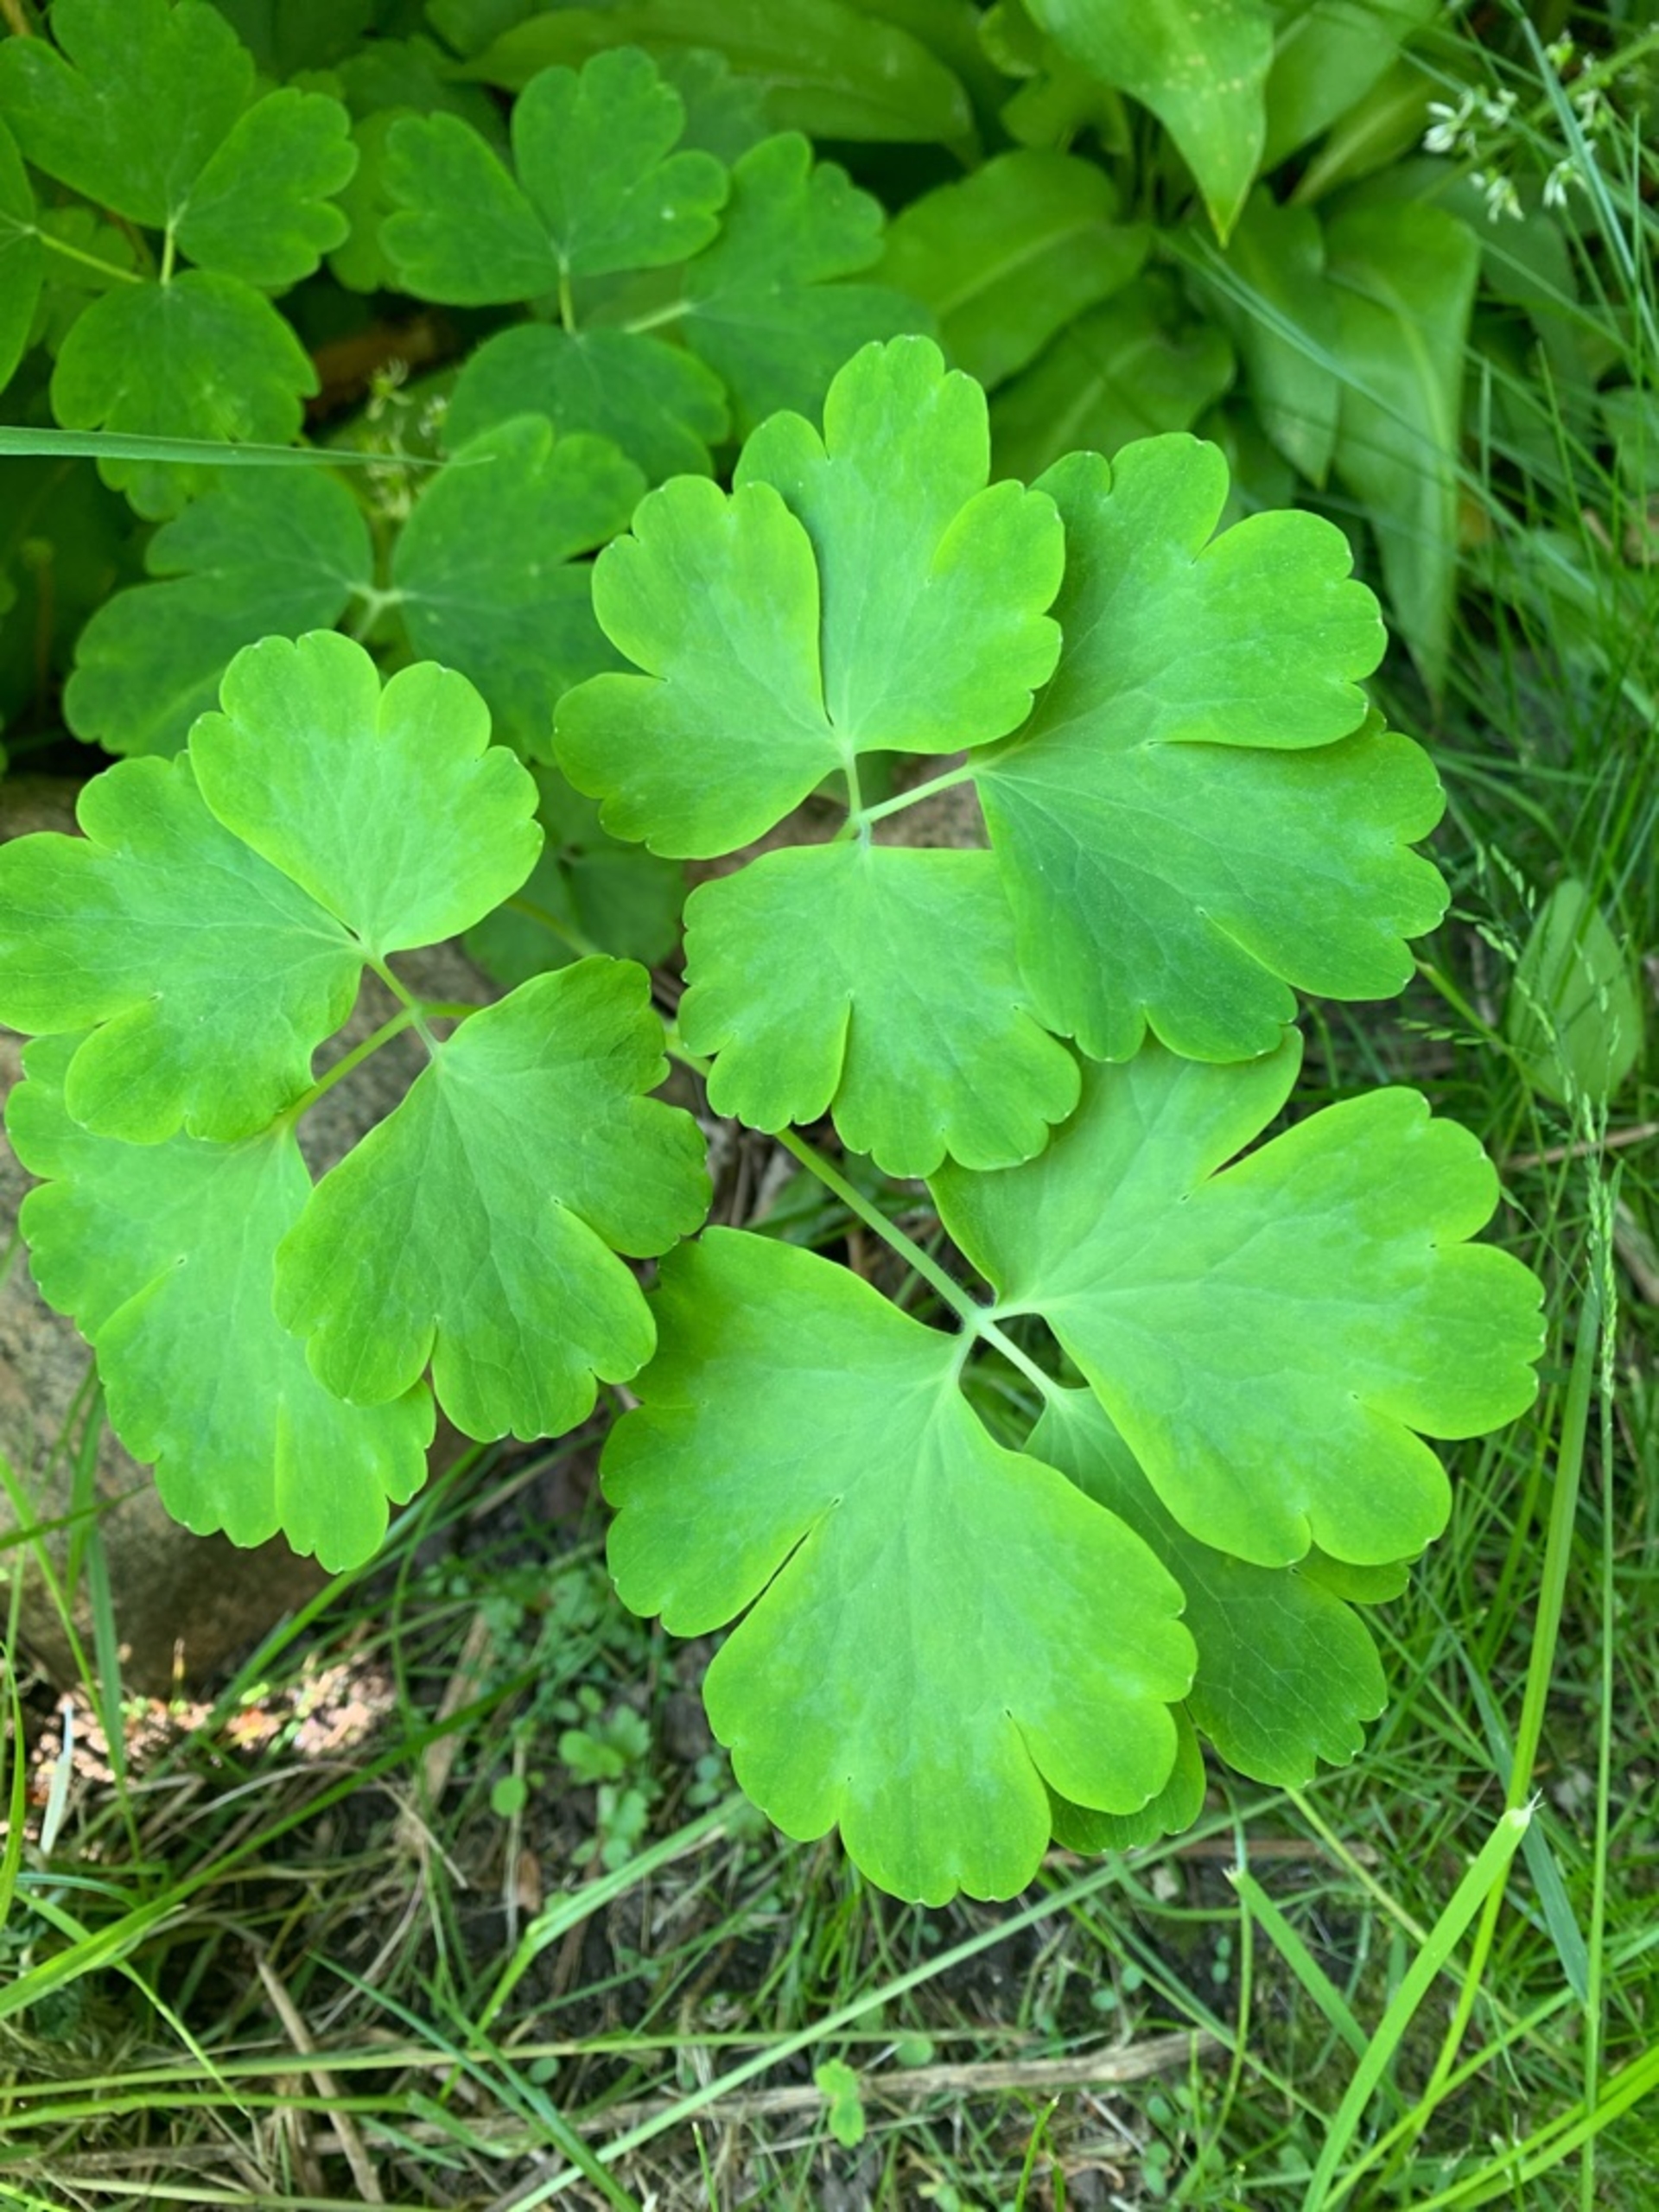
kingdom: Plantae
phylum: Tracheophyta
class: Magnoliopsida
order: Ranunculales
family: Ranunculaceae
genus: Aquilegia
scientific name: Aquilegia vulgaris
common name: Akeleje
